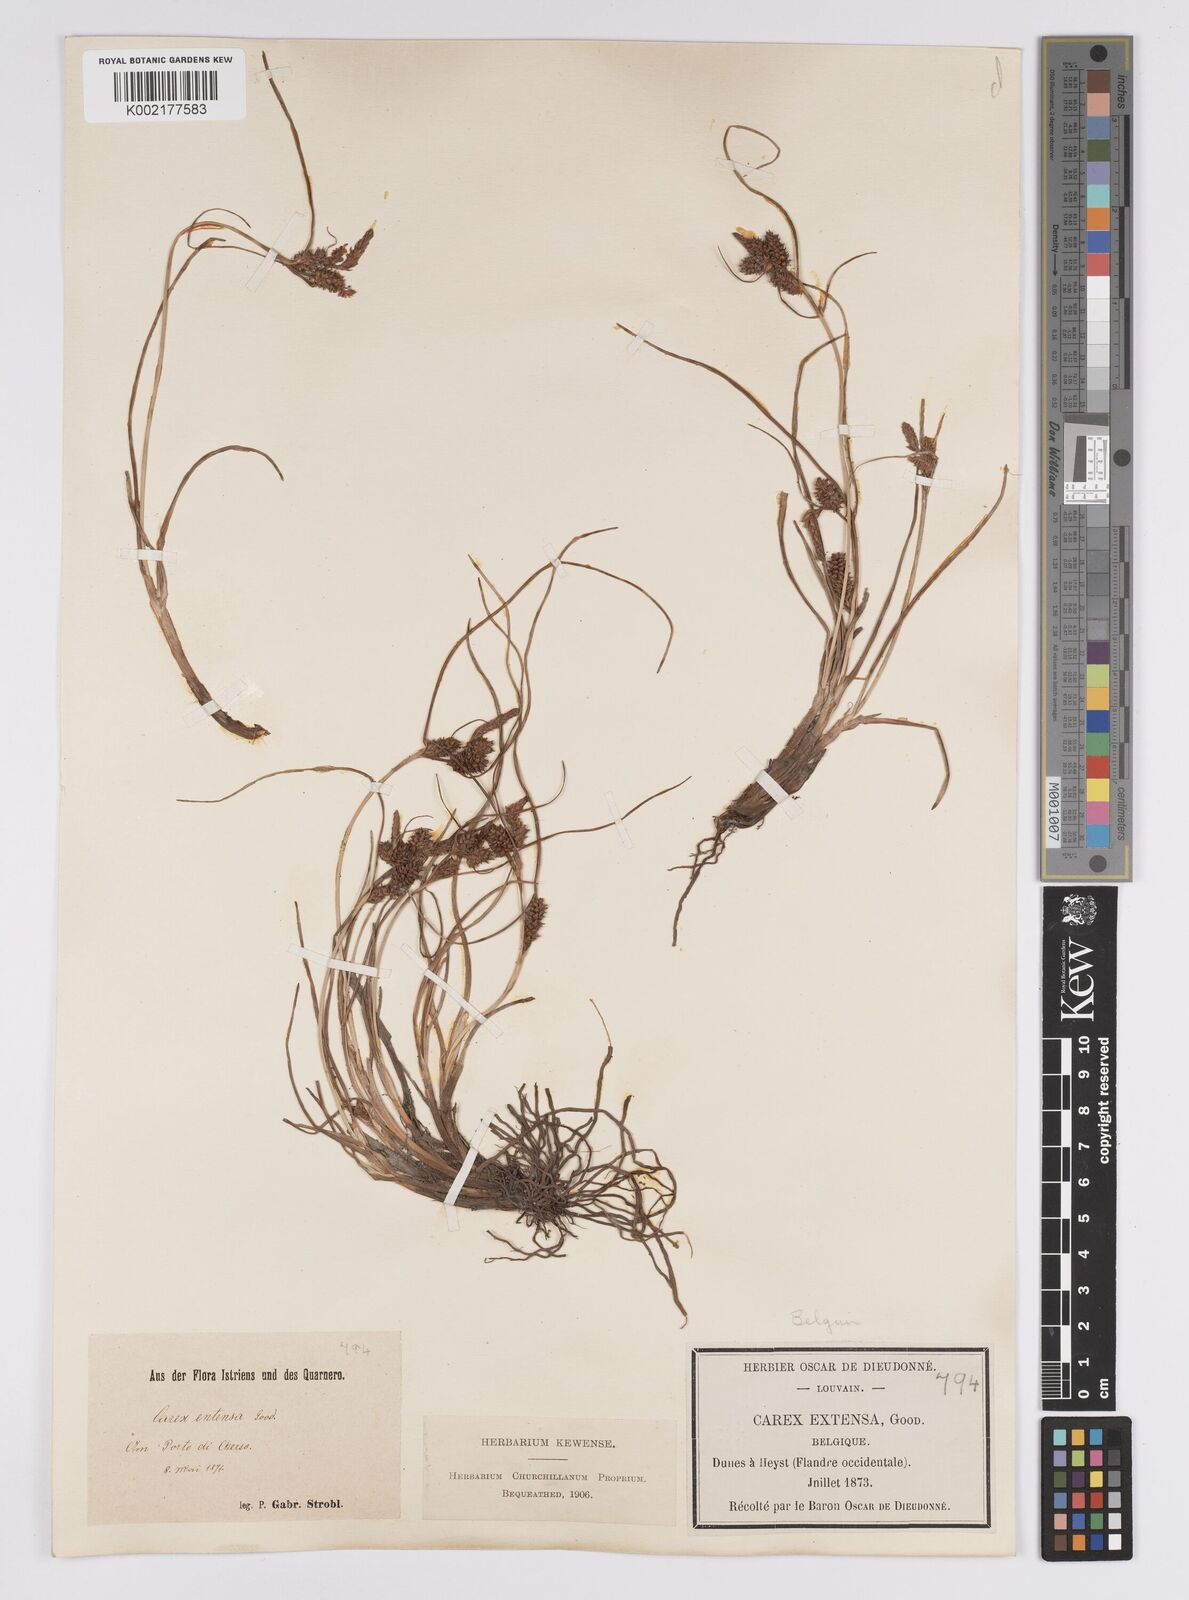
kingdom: Plantae
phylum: Tracheophyta
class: Liliopsida
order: Poales
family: Cyperaceae
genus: Carex
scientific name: Carex extensa
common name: Long-bracted sedge
